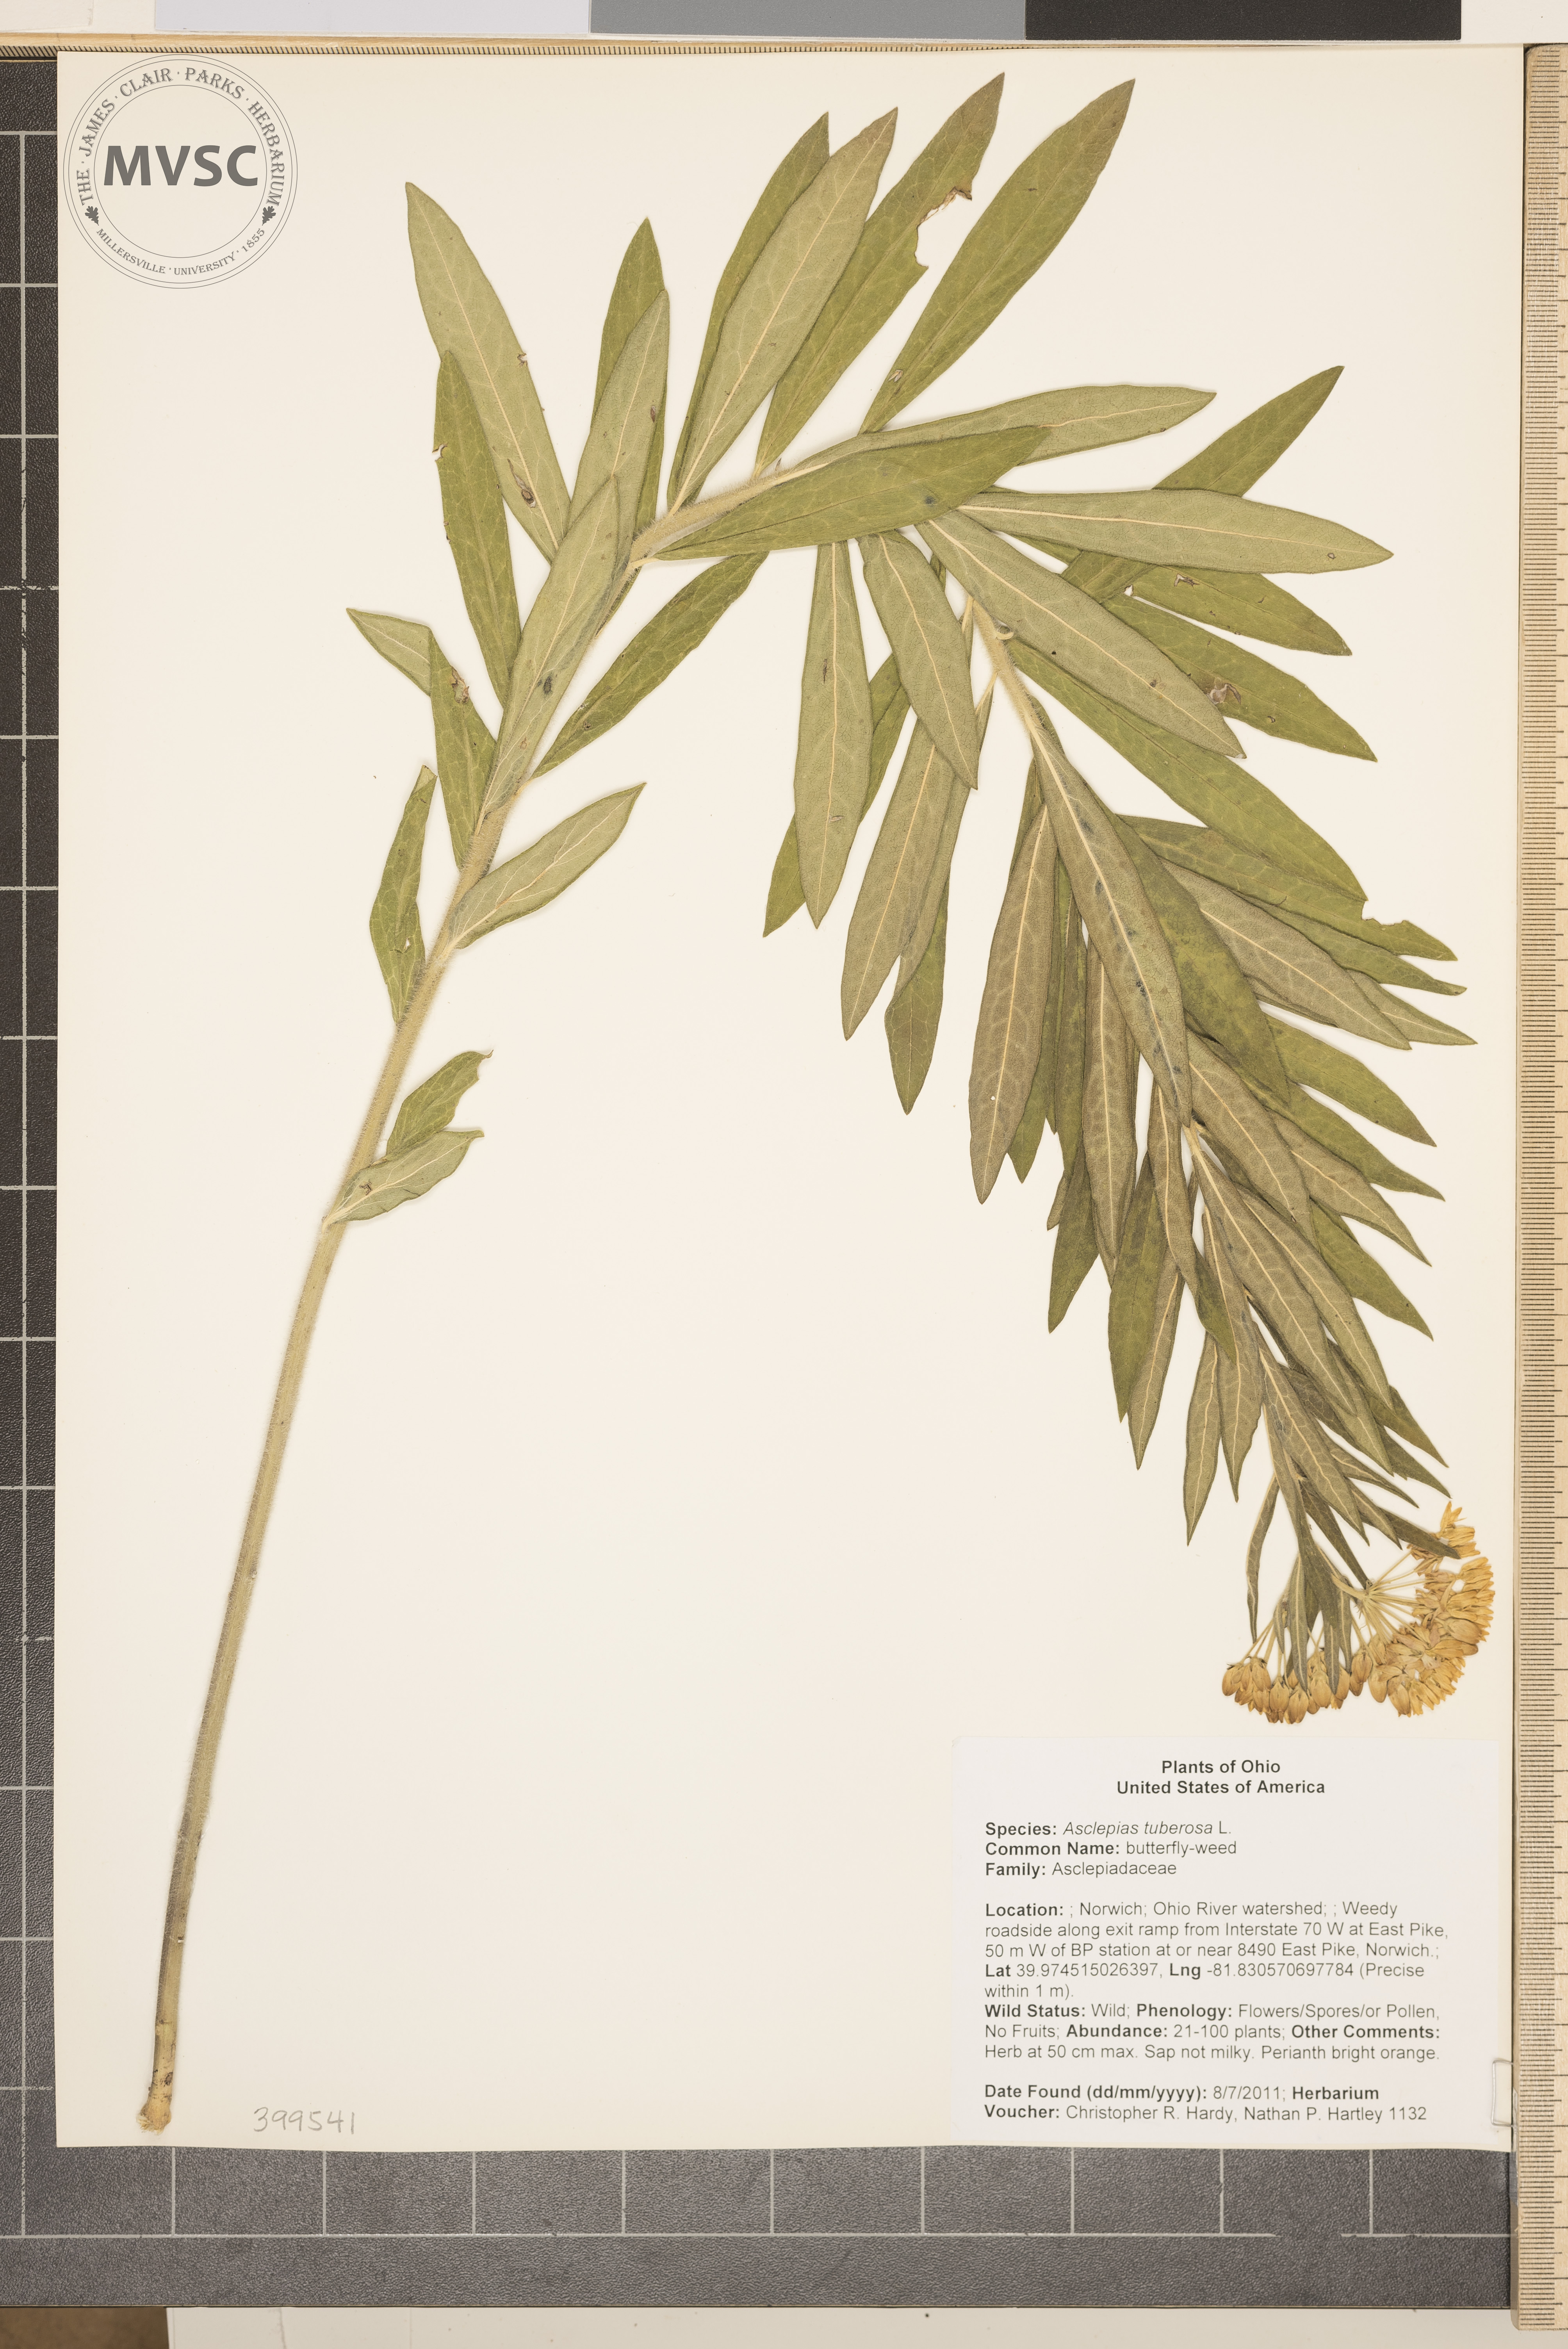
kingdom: Plantae
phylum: Tracheophyta
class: Magnoliopsida
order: Gentianales
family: Apocynaceae
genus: Asclepias
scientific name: Asclepias tuberosa
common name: butterfly-weed
